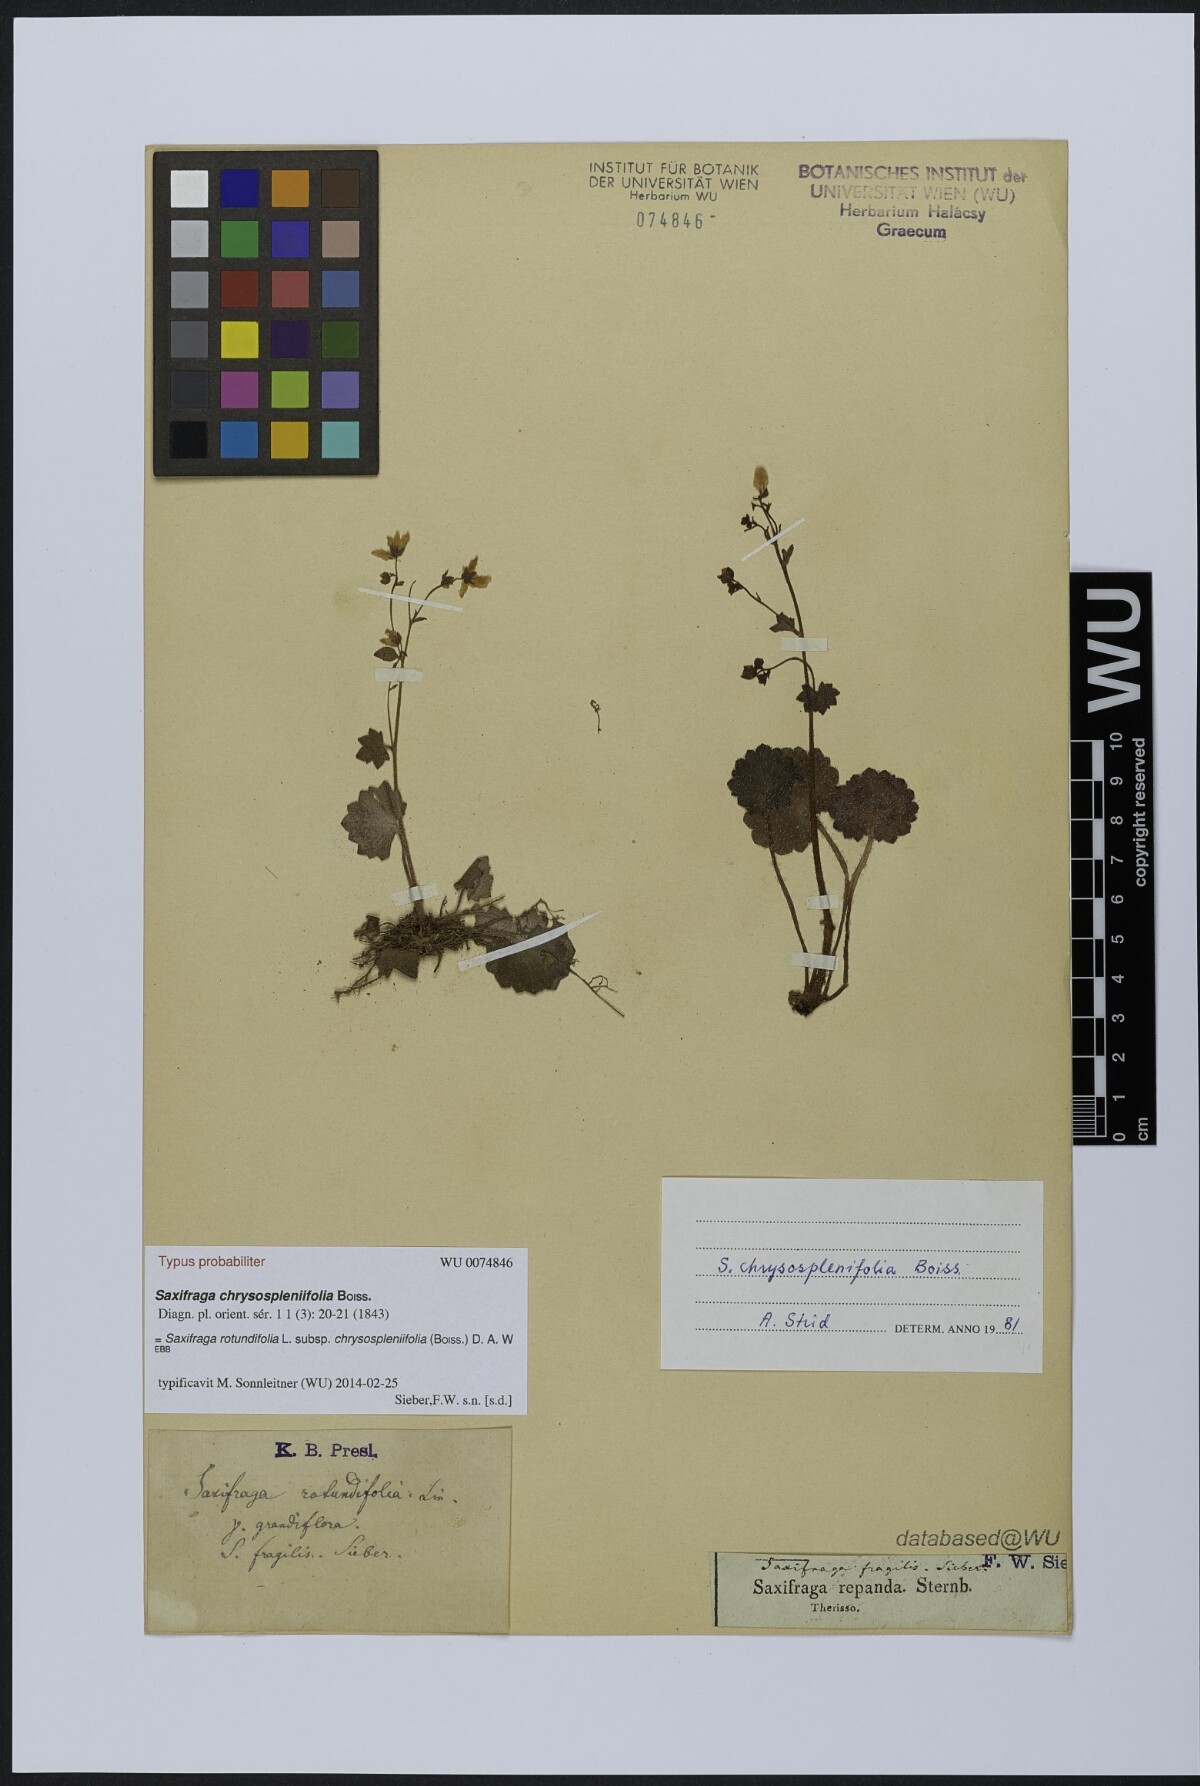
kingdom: Plantae
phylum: Tracheophyta
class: Magnoliopsida
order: Saxifragales
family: Saxifragaceae
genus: Saxifraga
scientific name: Saxifraga rotundifolia
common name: Round-leaved saxifrage
